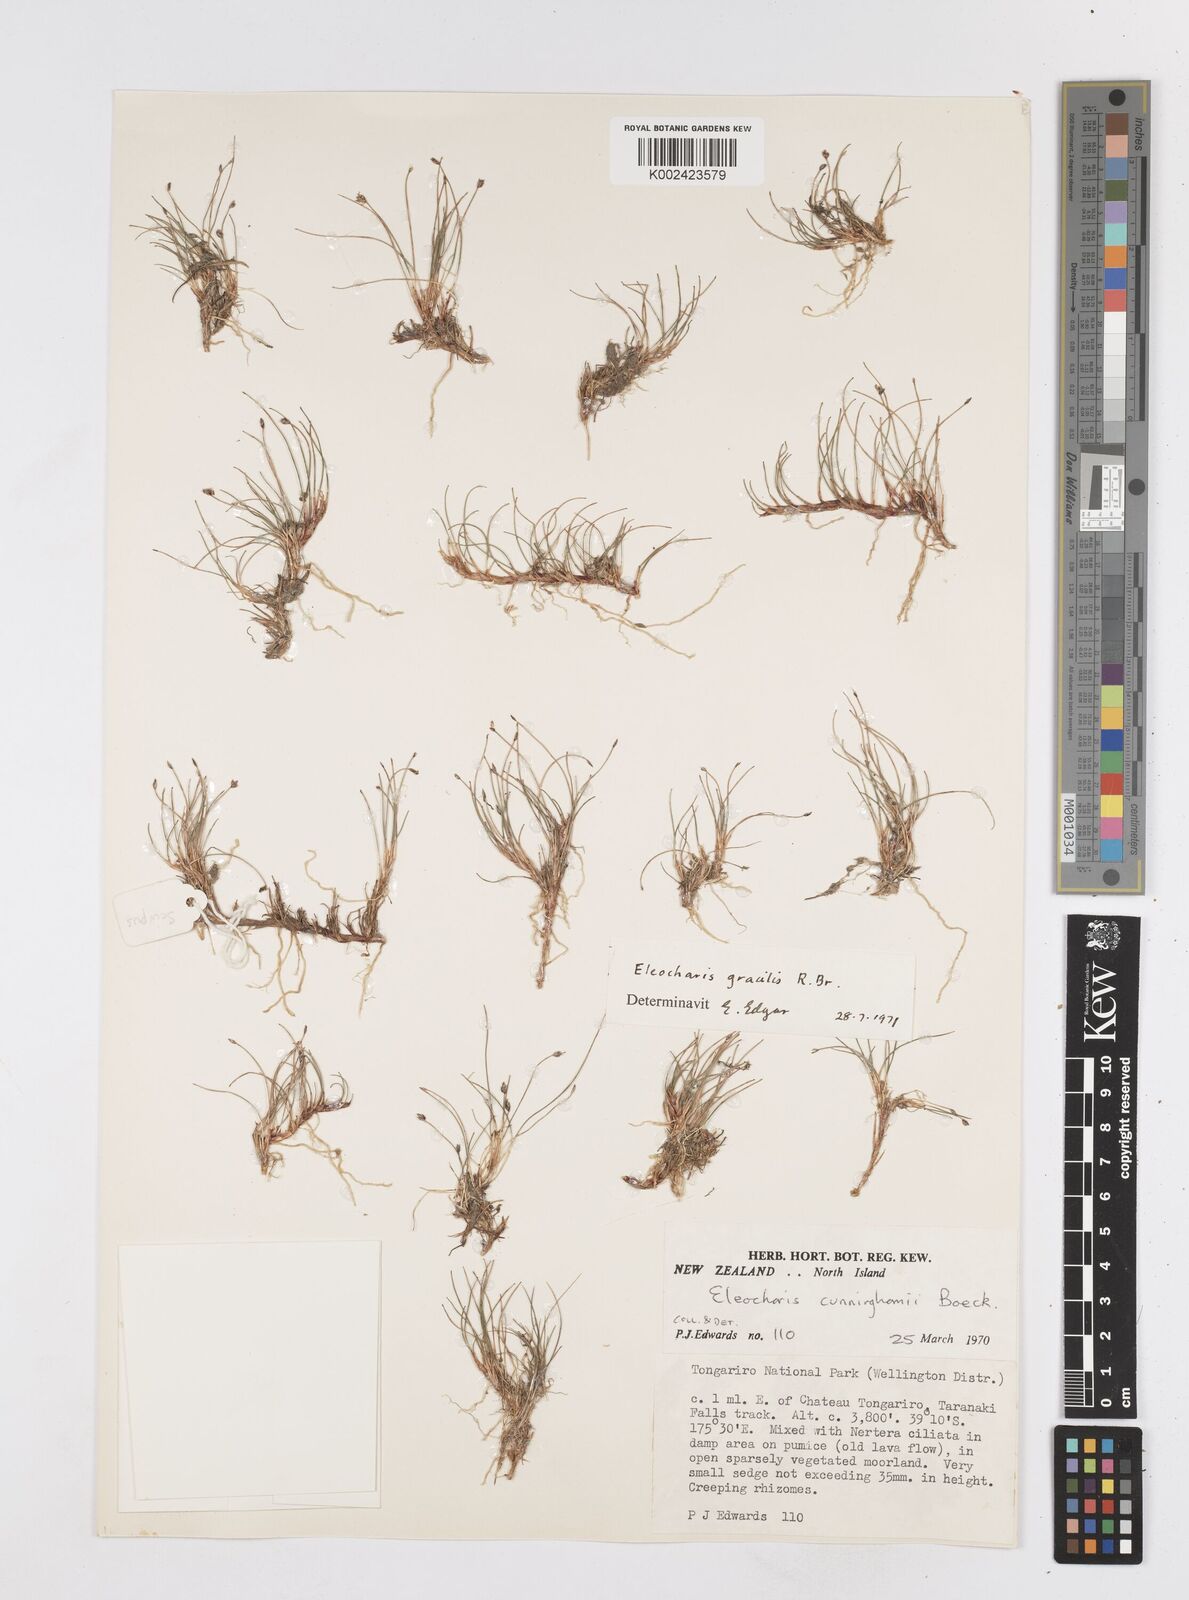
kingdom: Plantae
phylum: Tracheophyta
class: Liliopsida
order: Poales
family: Cyperaceae
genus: Eleocharis
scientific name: Eleocharis gracilis
